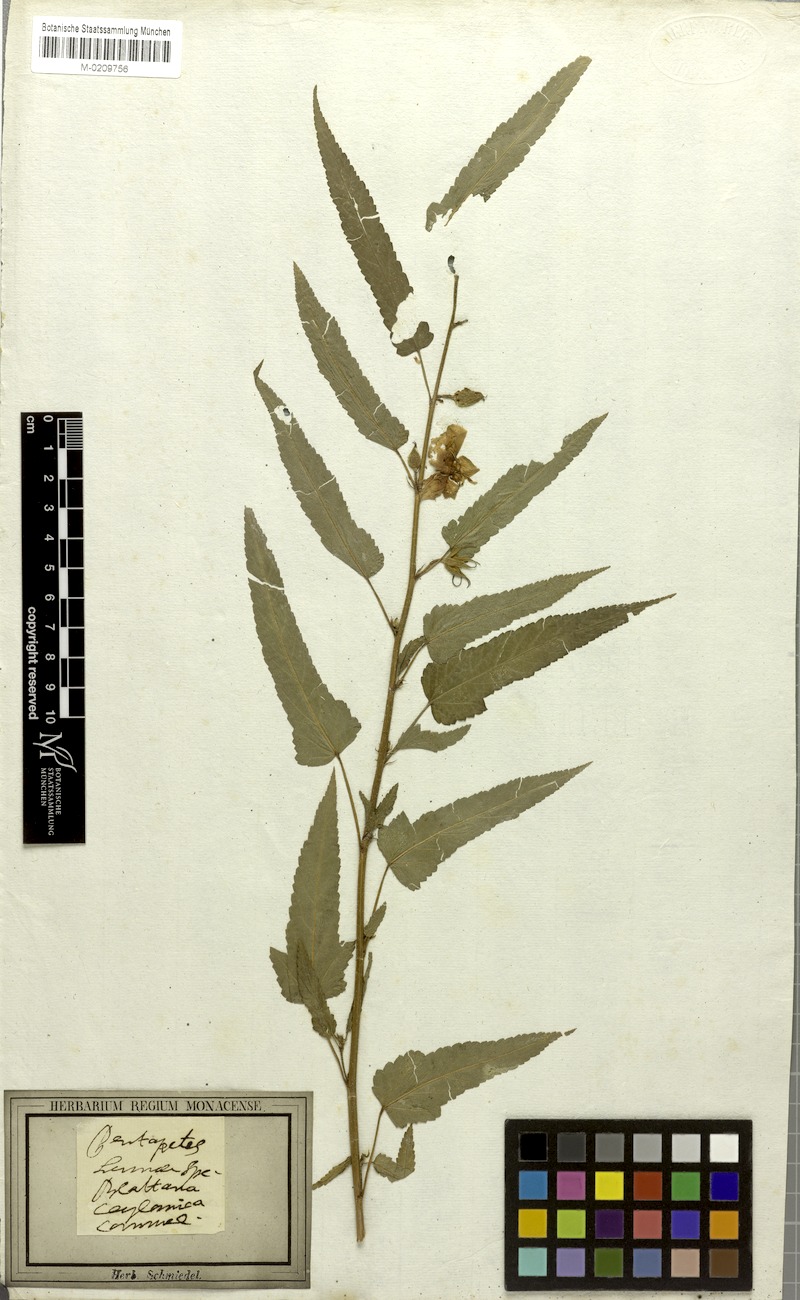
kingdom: Plantae
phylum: Tracheophyta
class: Magnoliopsida
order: Malvales
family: Malvaceae
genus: Pentapetes
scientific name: Pentapetes phoenicea
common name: Copper-cups
